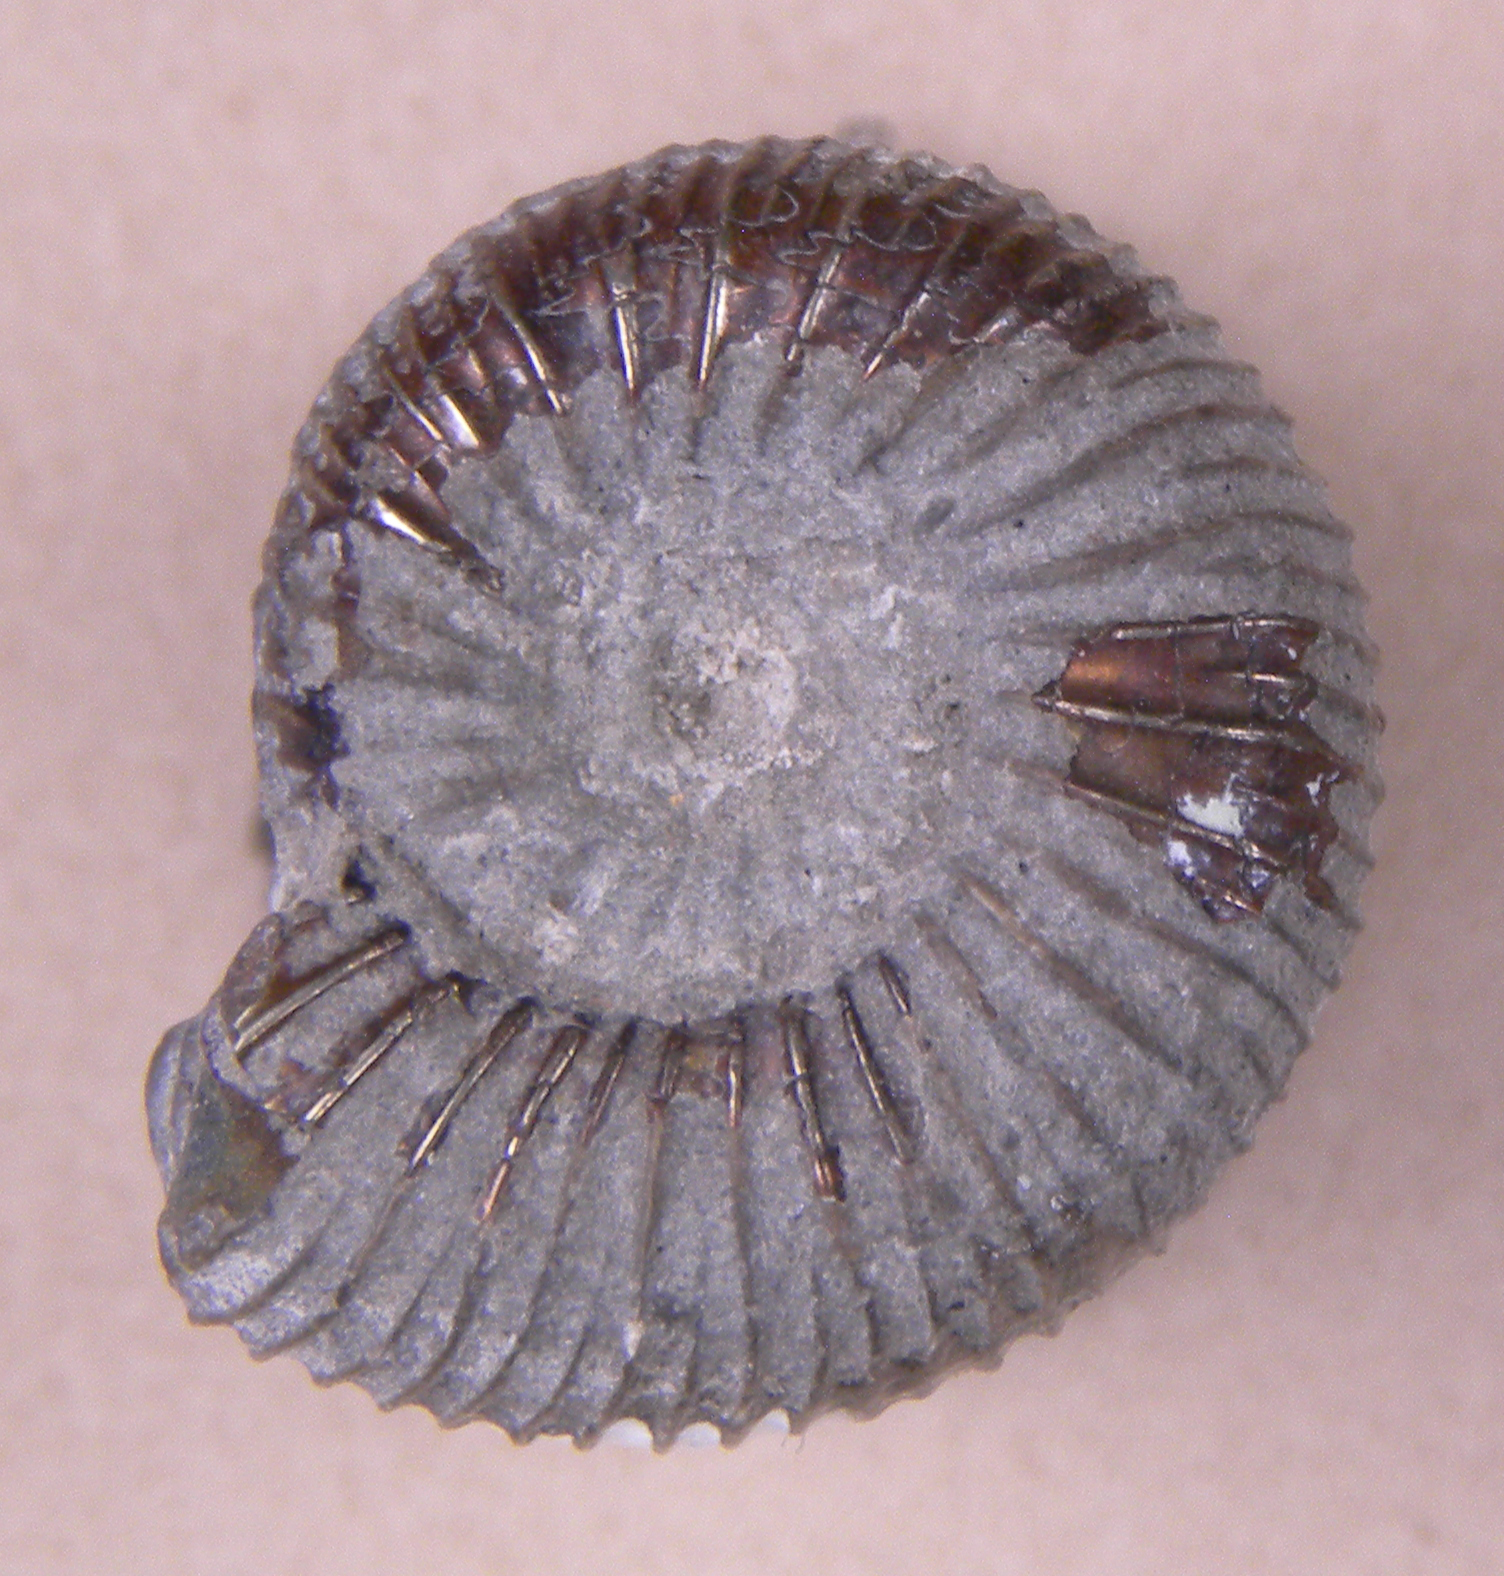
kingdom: Animalia
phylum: Mollusca
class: Cephalopoda
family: Dactylioceratidae
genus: Dactylioceras
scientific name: Dactylioceras
